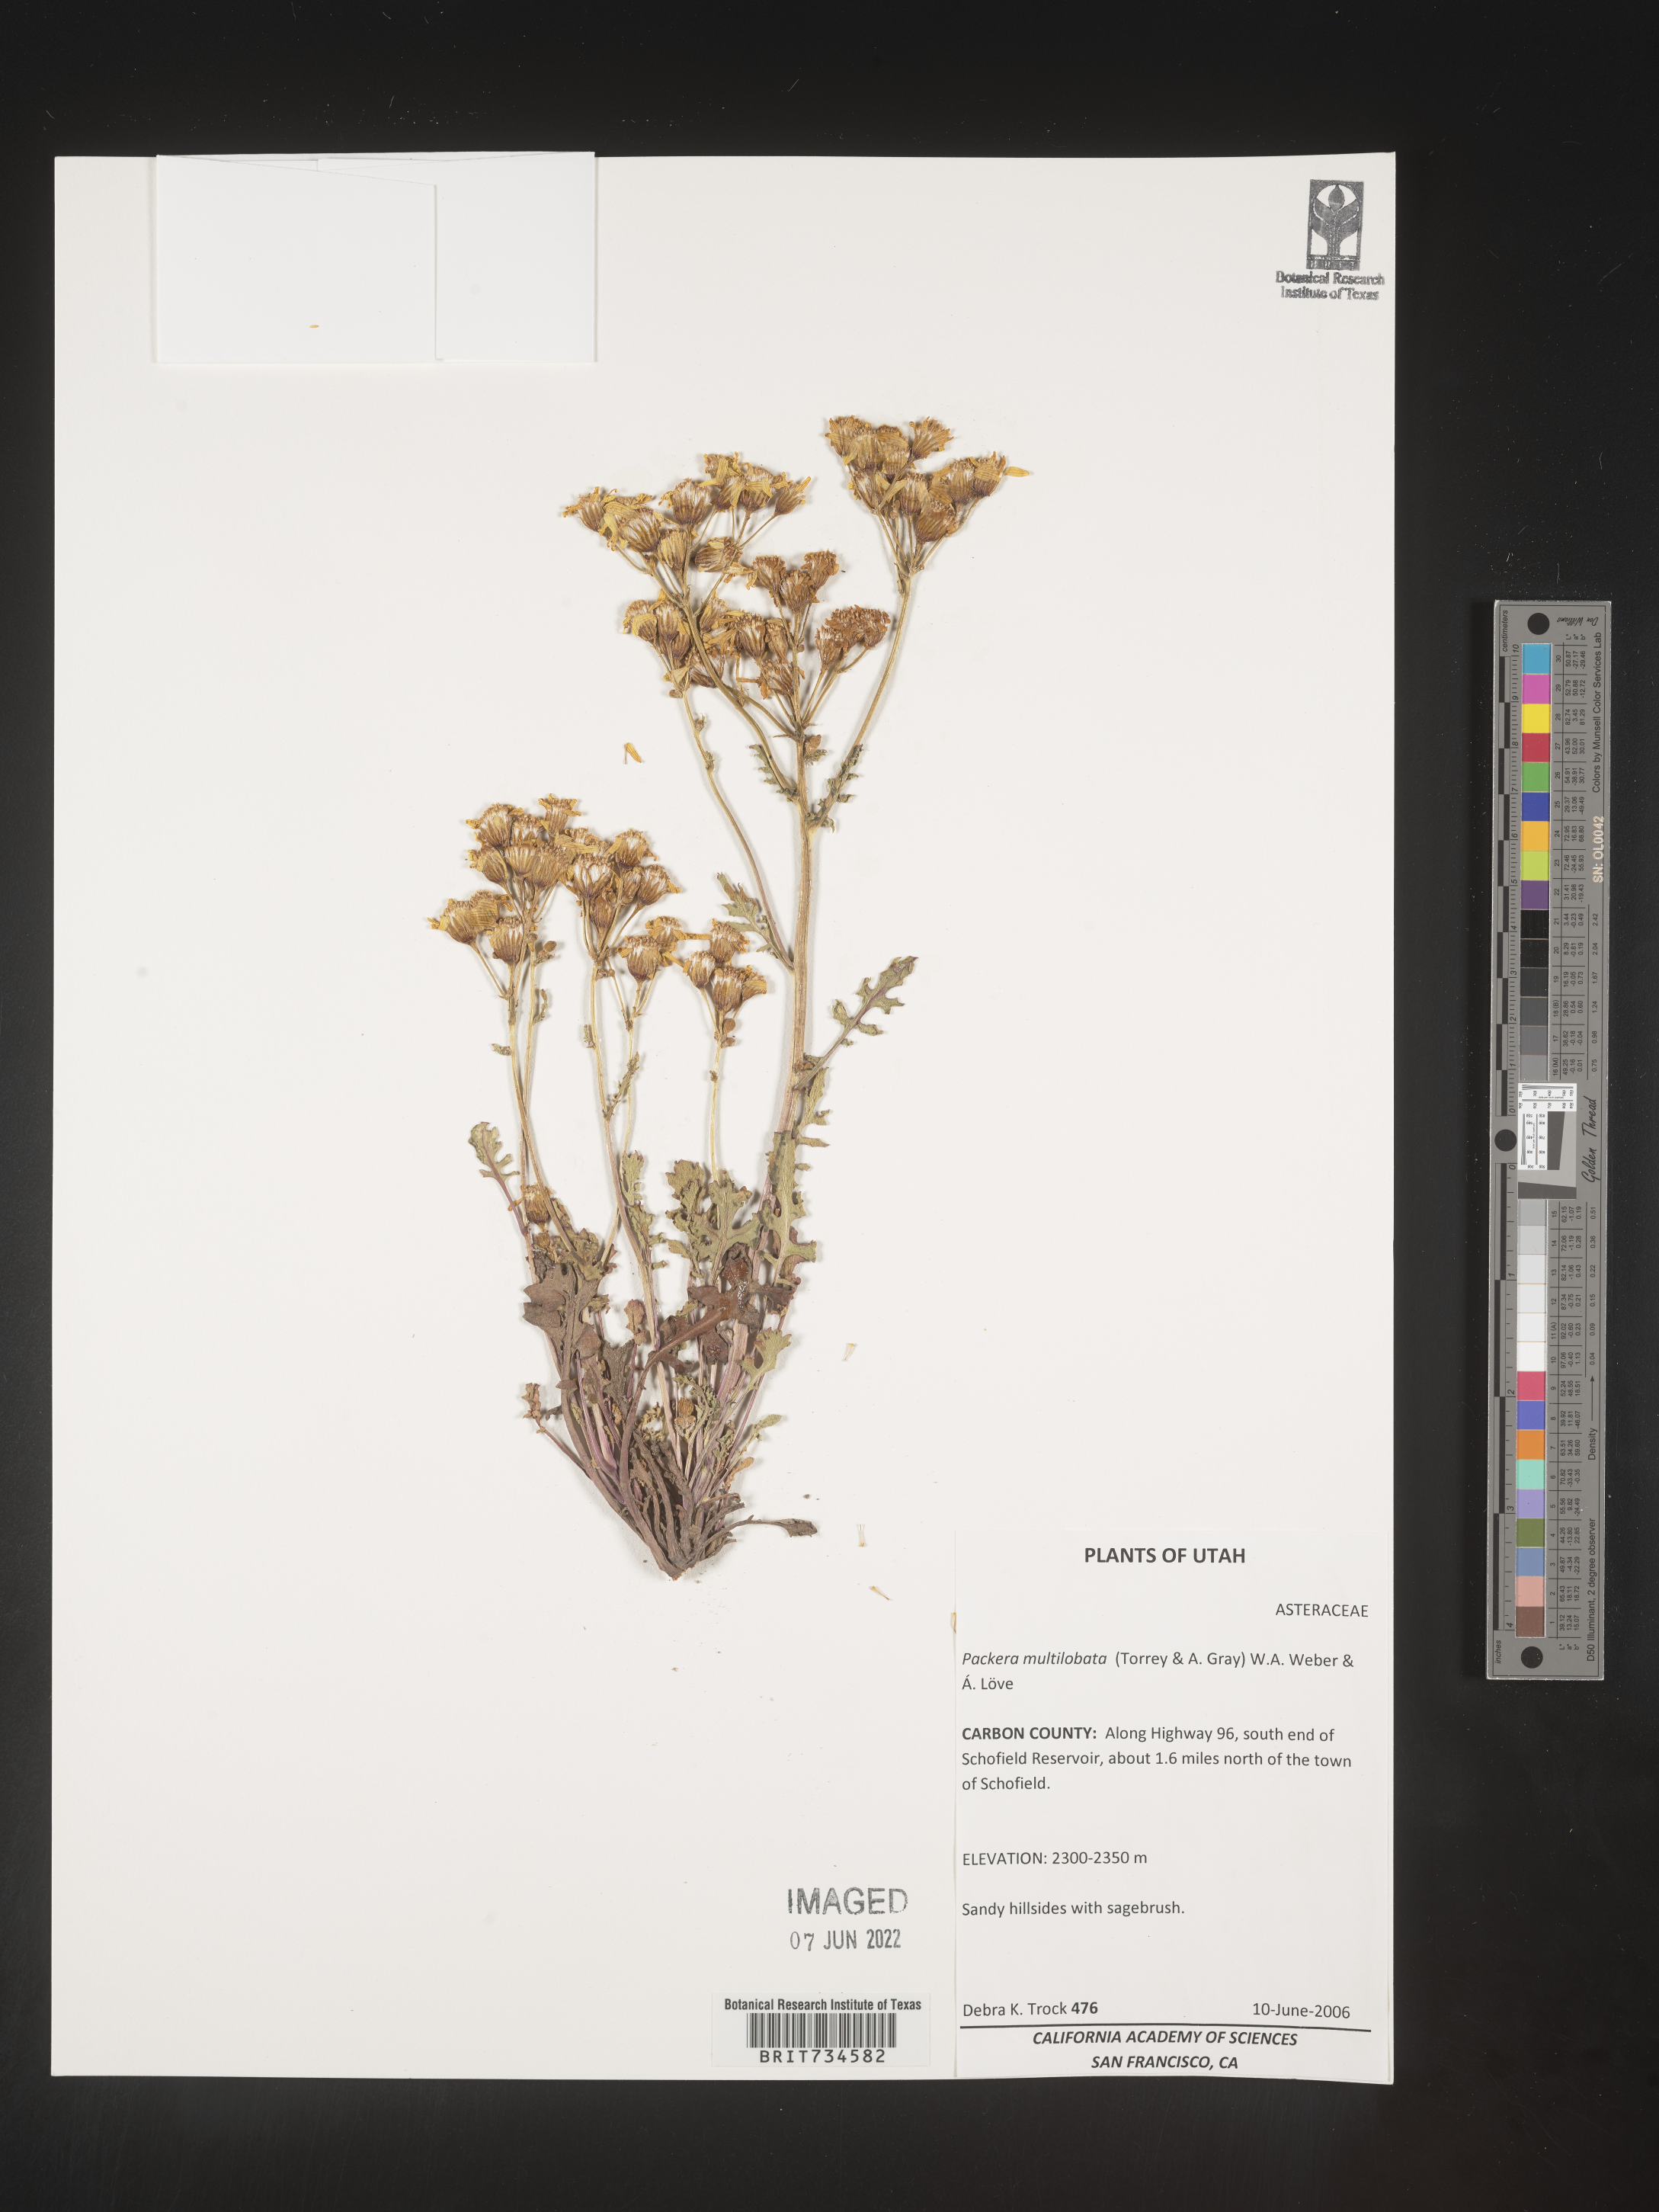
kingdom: Plantae
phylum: Tracheophyta
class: Magnoliopsida
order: Asterales
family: Asteraceae
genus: Packera
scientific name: Packera multilobata
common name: Lobe-leaf groundsel
